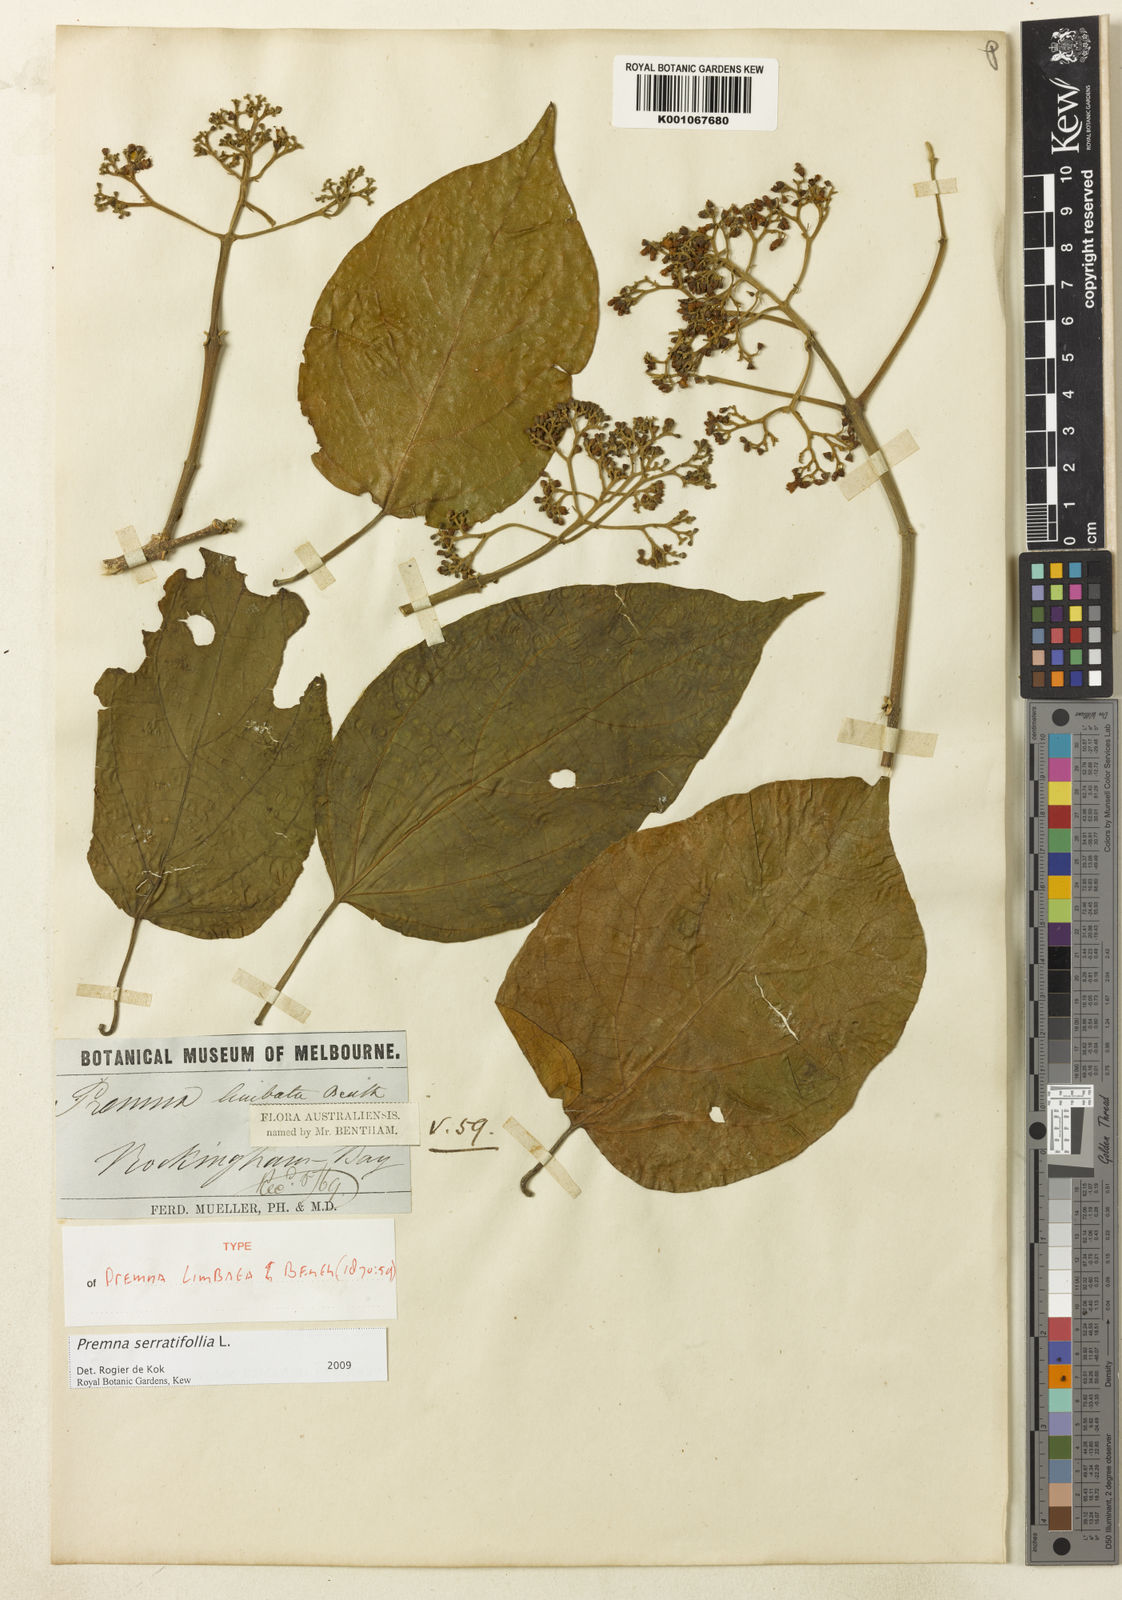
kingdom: Plantae
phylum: Tracheophyta
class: Magnoliopsida
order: Lamiales
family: Lamiaceae
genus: Premna
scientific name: Premna serratifolia
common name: Bastard guelder
